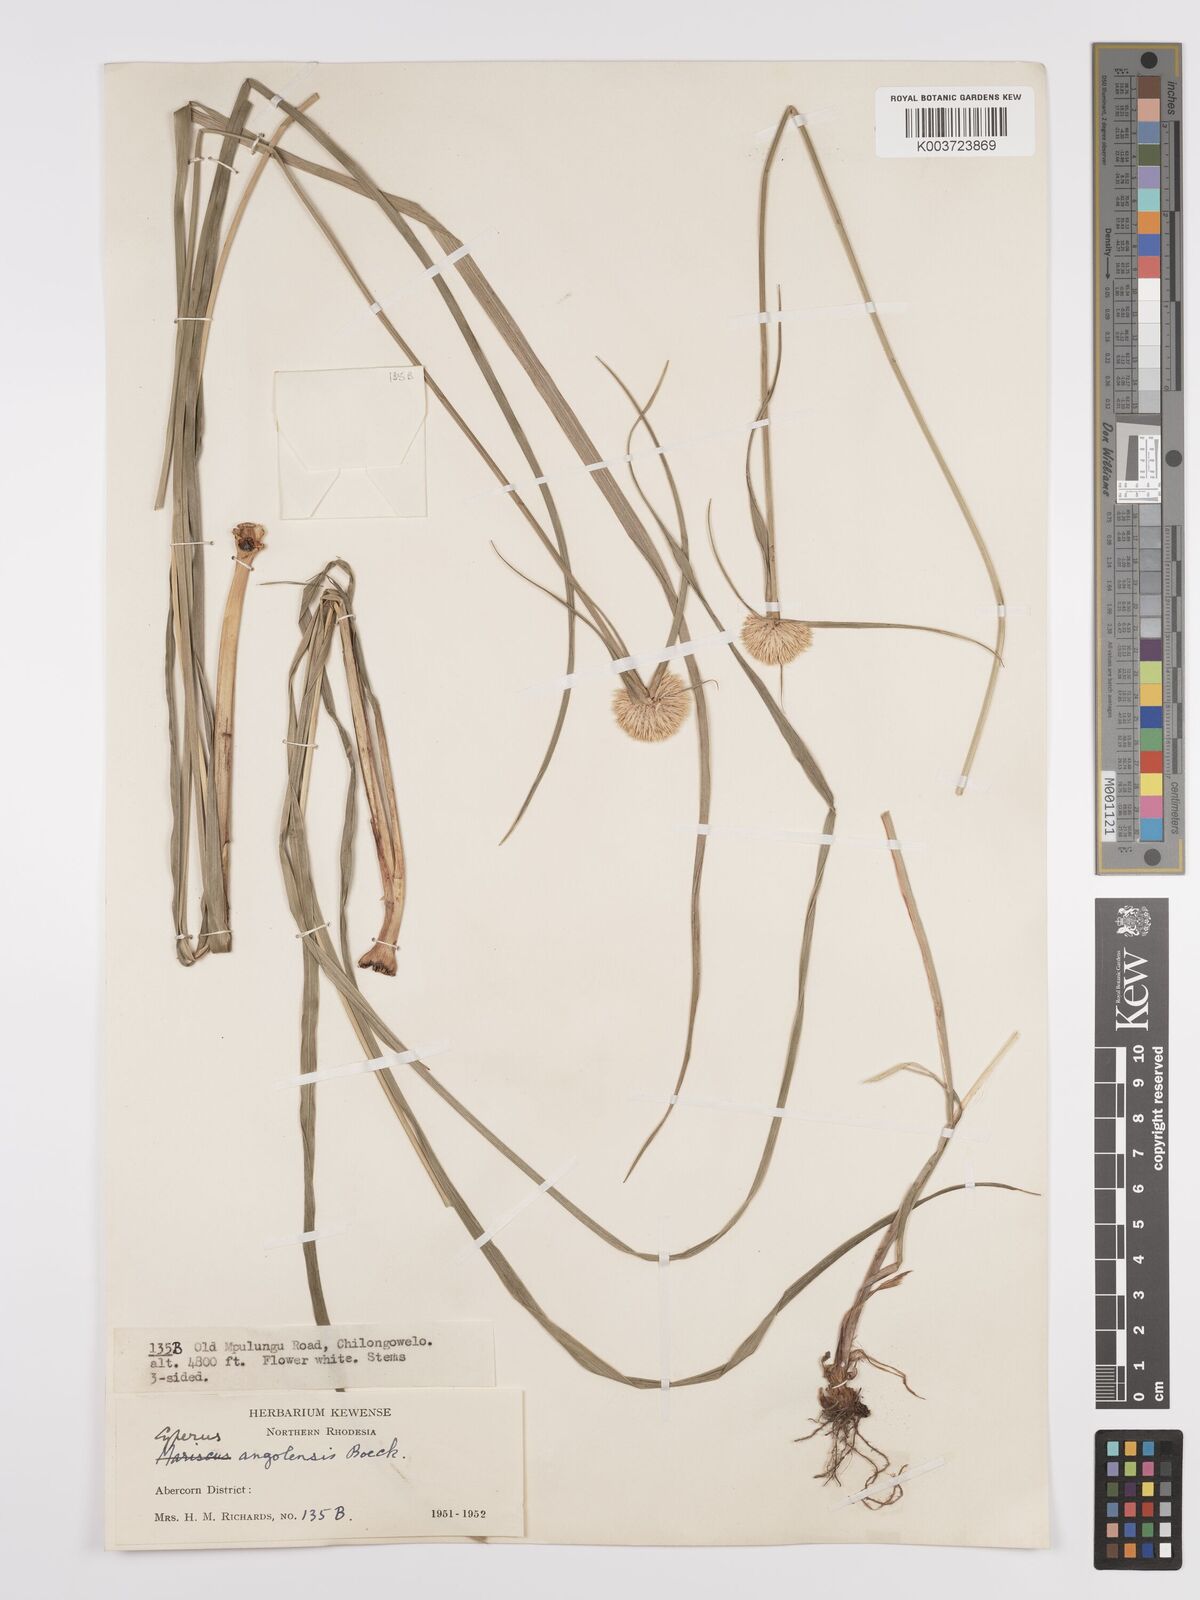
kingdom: Plantae
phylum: Tracheophyta
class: Liliopsida
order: Poales
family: Cyperaceae
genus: Cyperus
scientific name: Cyperus angolensis
